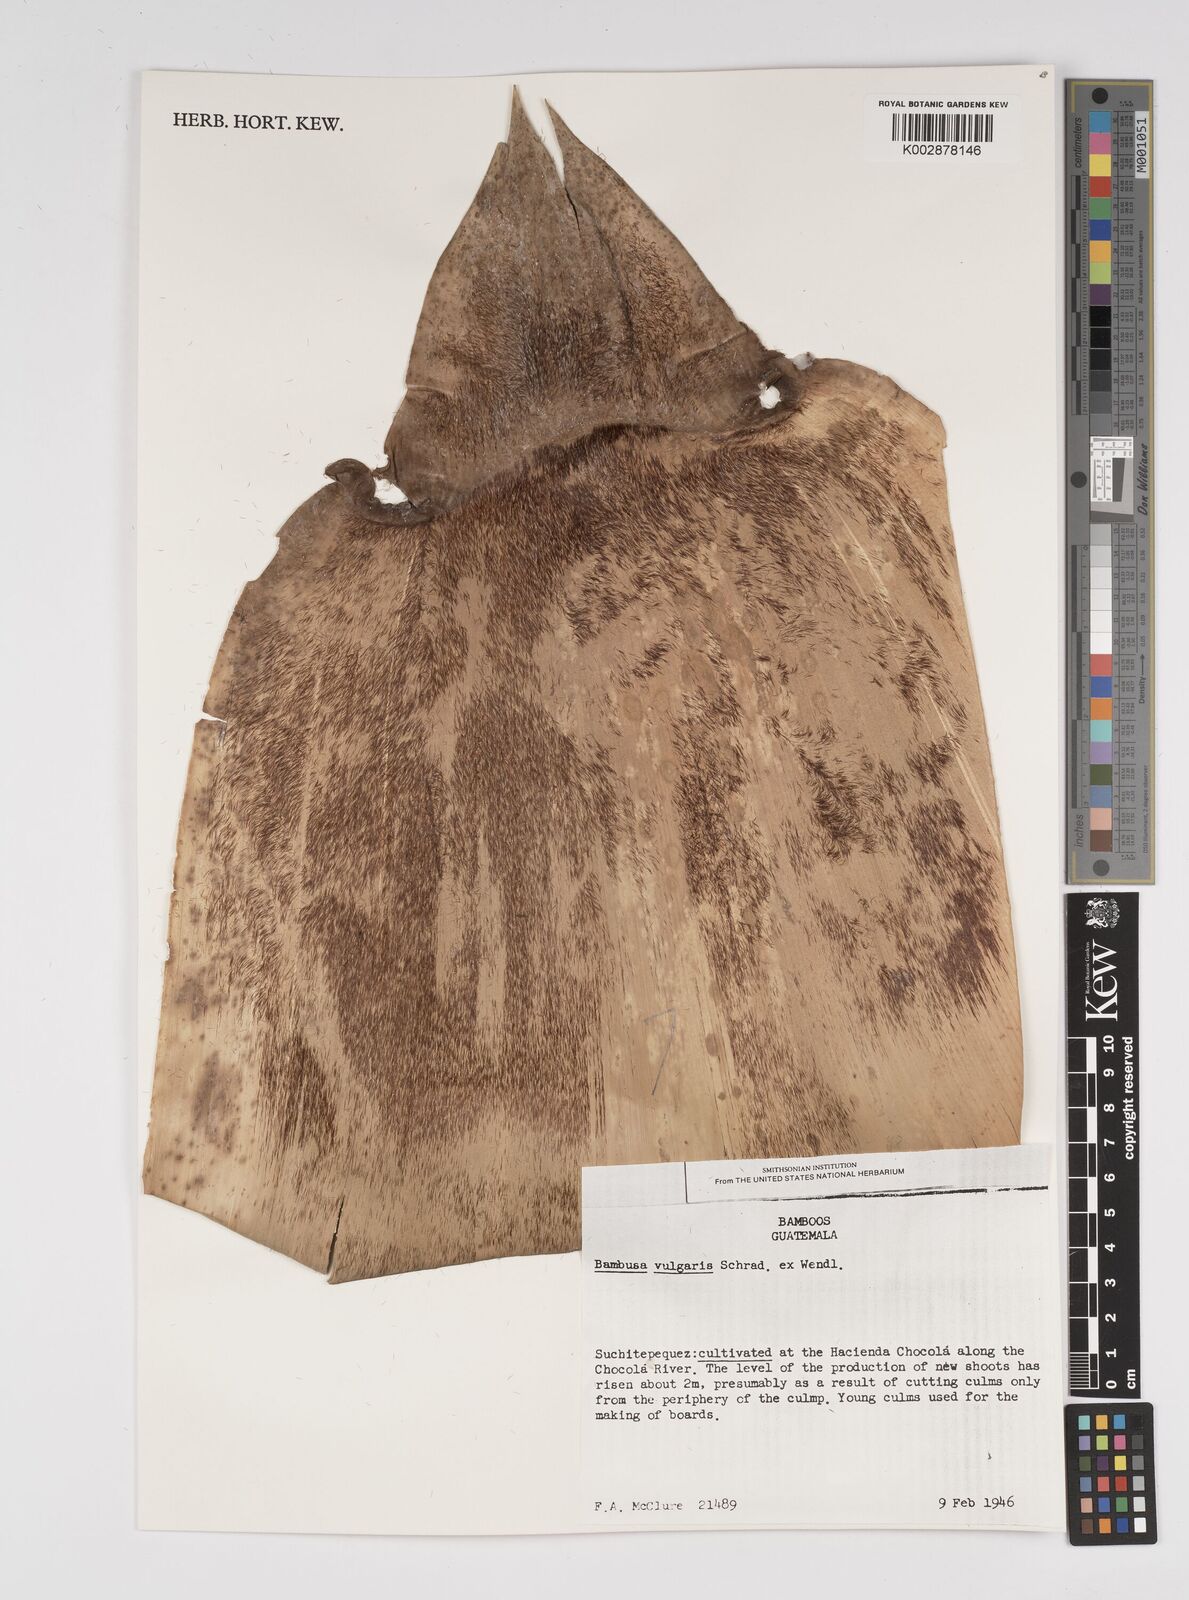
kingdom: Plantae
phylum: Tracheophyta
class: Liliopsida
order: Poales
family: Poaceae
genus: Bambusa
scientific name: Bambusa
